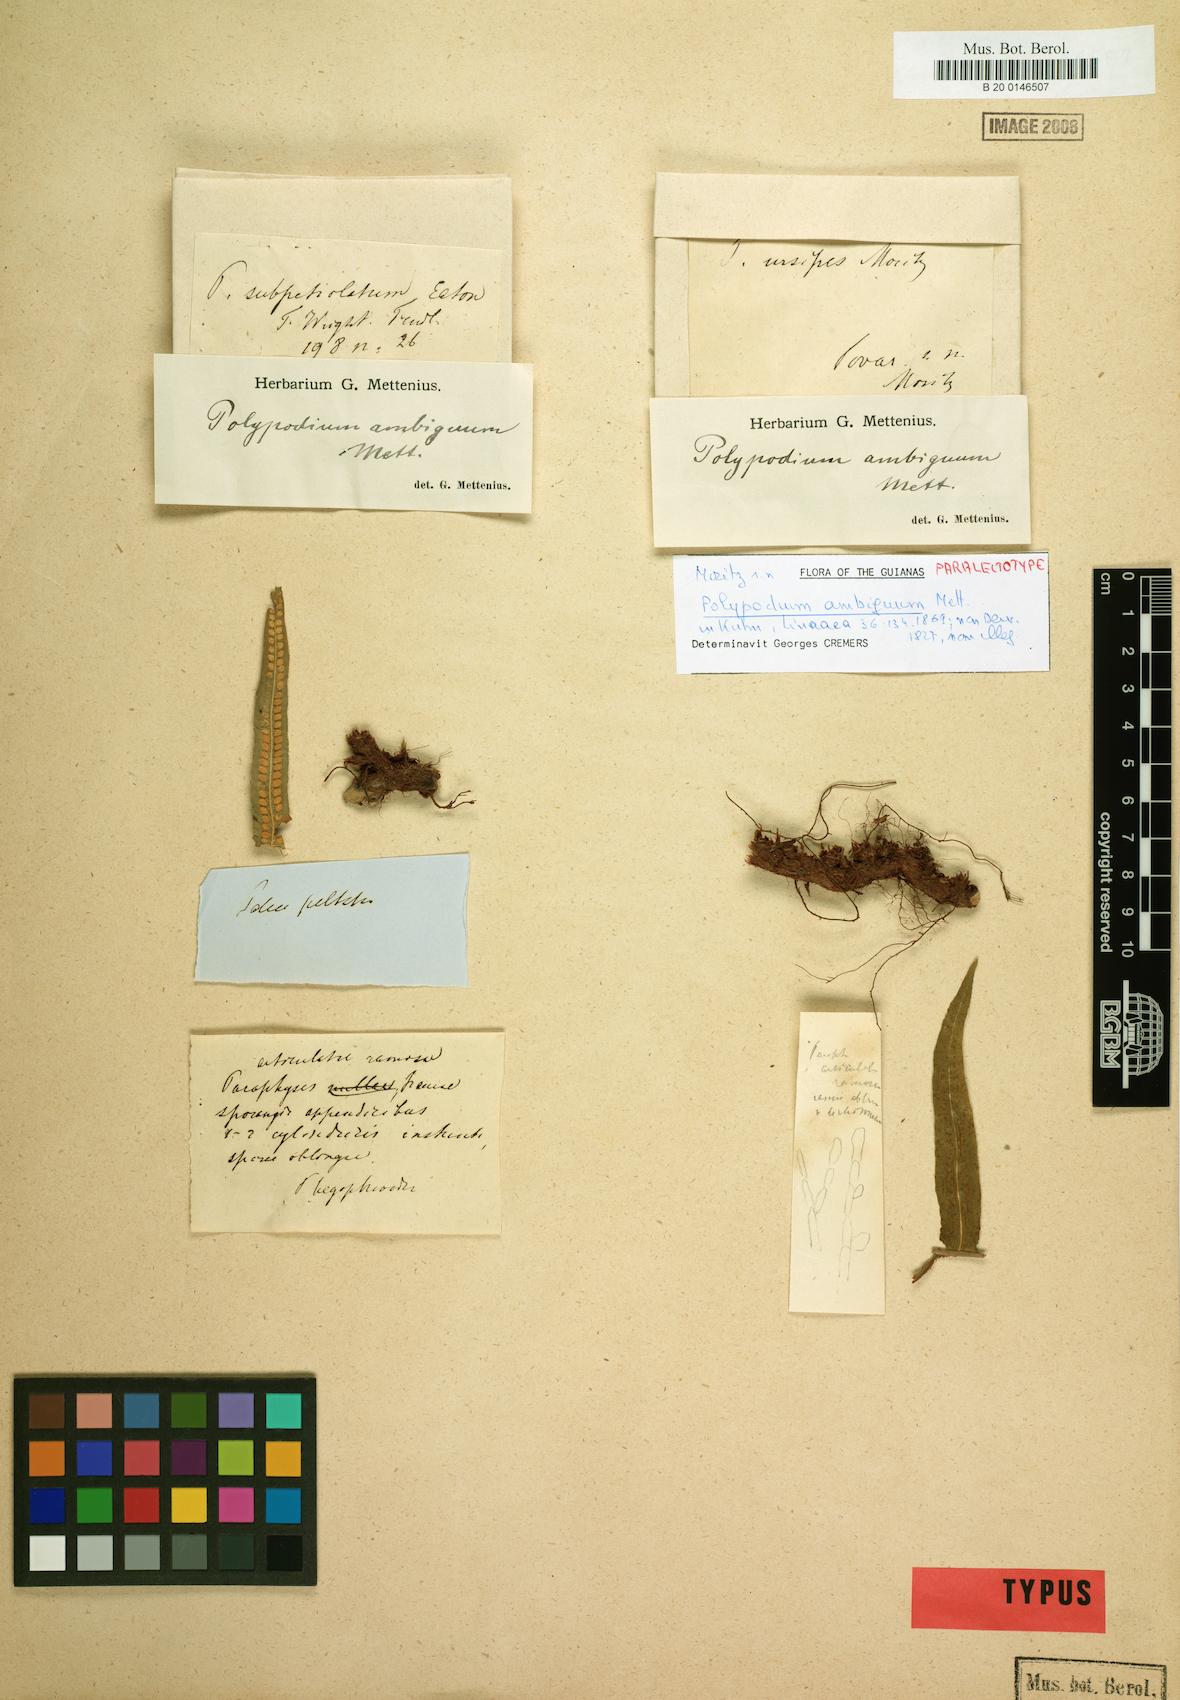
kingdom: Plantae
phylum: Tracheophyta
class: Polypodiopsida
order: Polypodiales
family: Polypodiaceae
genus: Polypodium
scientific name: Polypodium ursipes
